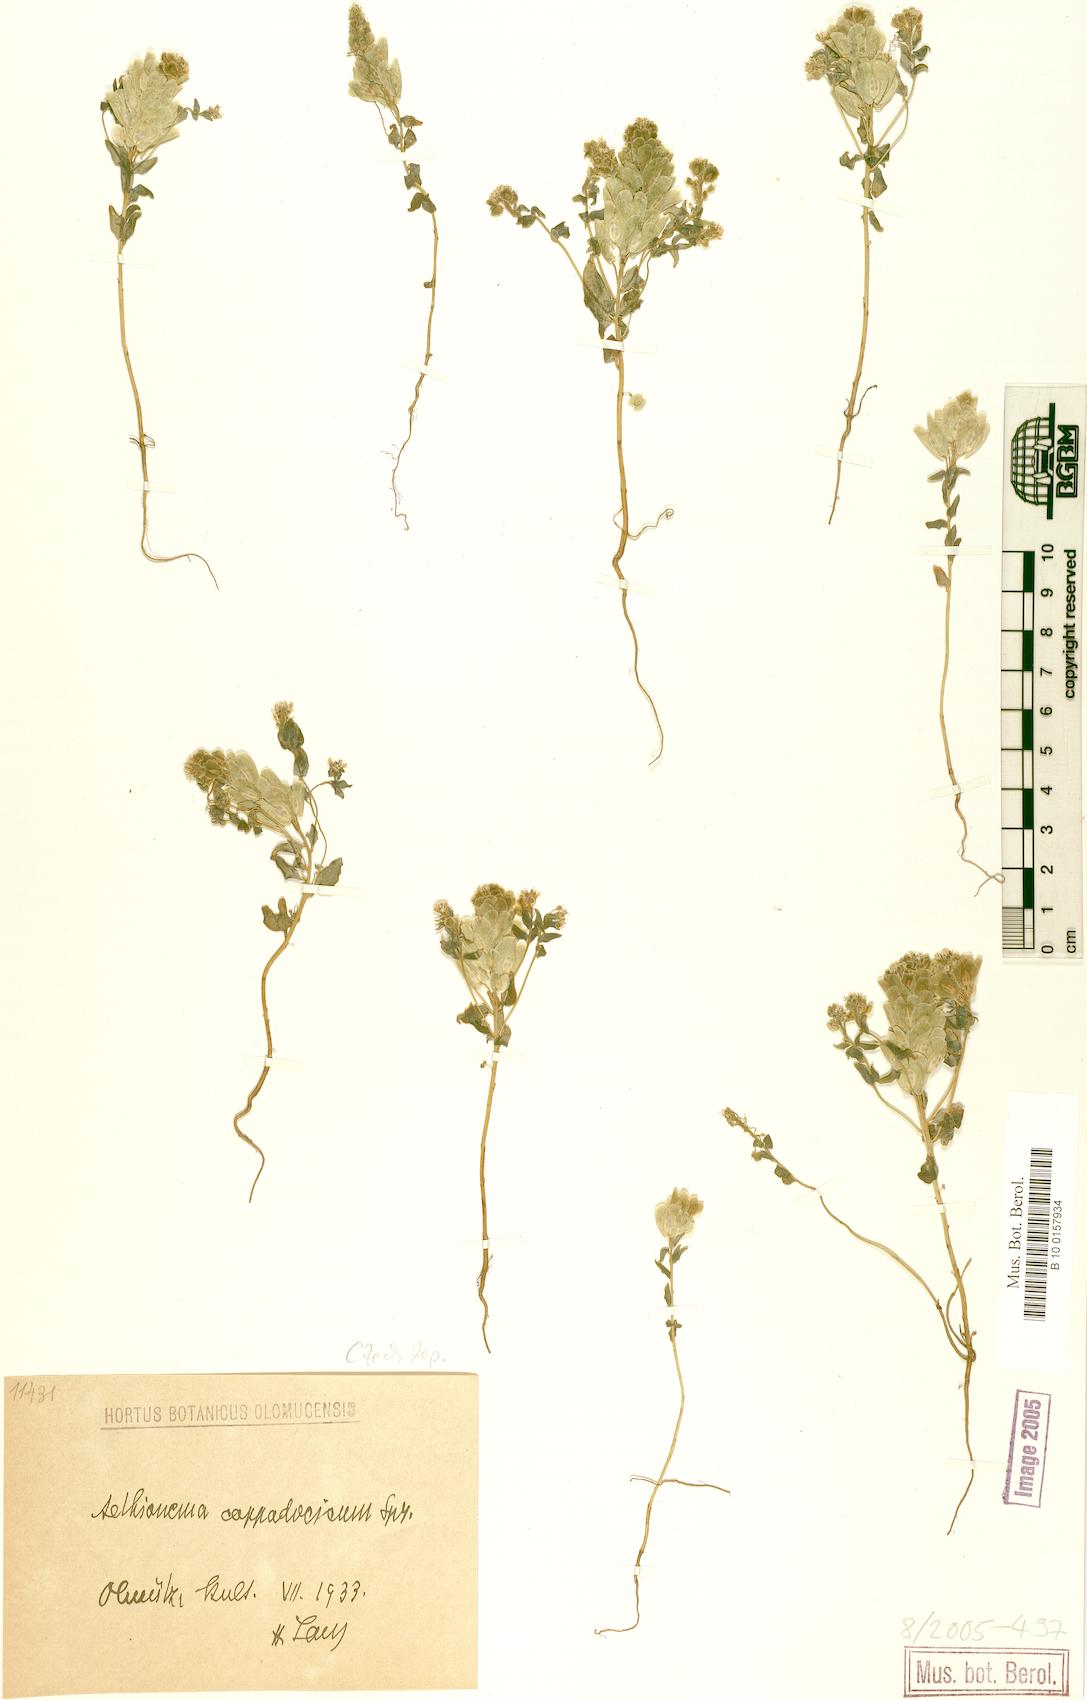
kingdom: Plantae
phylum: Tracheophyta
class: Magnoliopsida
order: Brassicales
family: Brassicaceae
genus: Aethionema
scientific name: Aethionema arabicum
